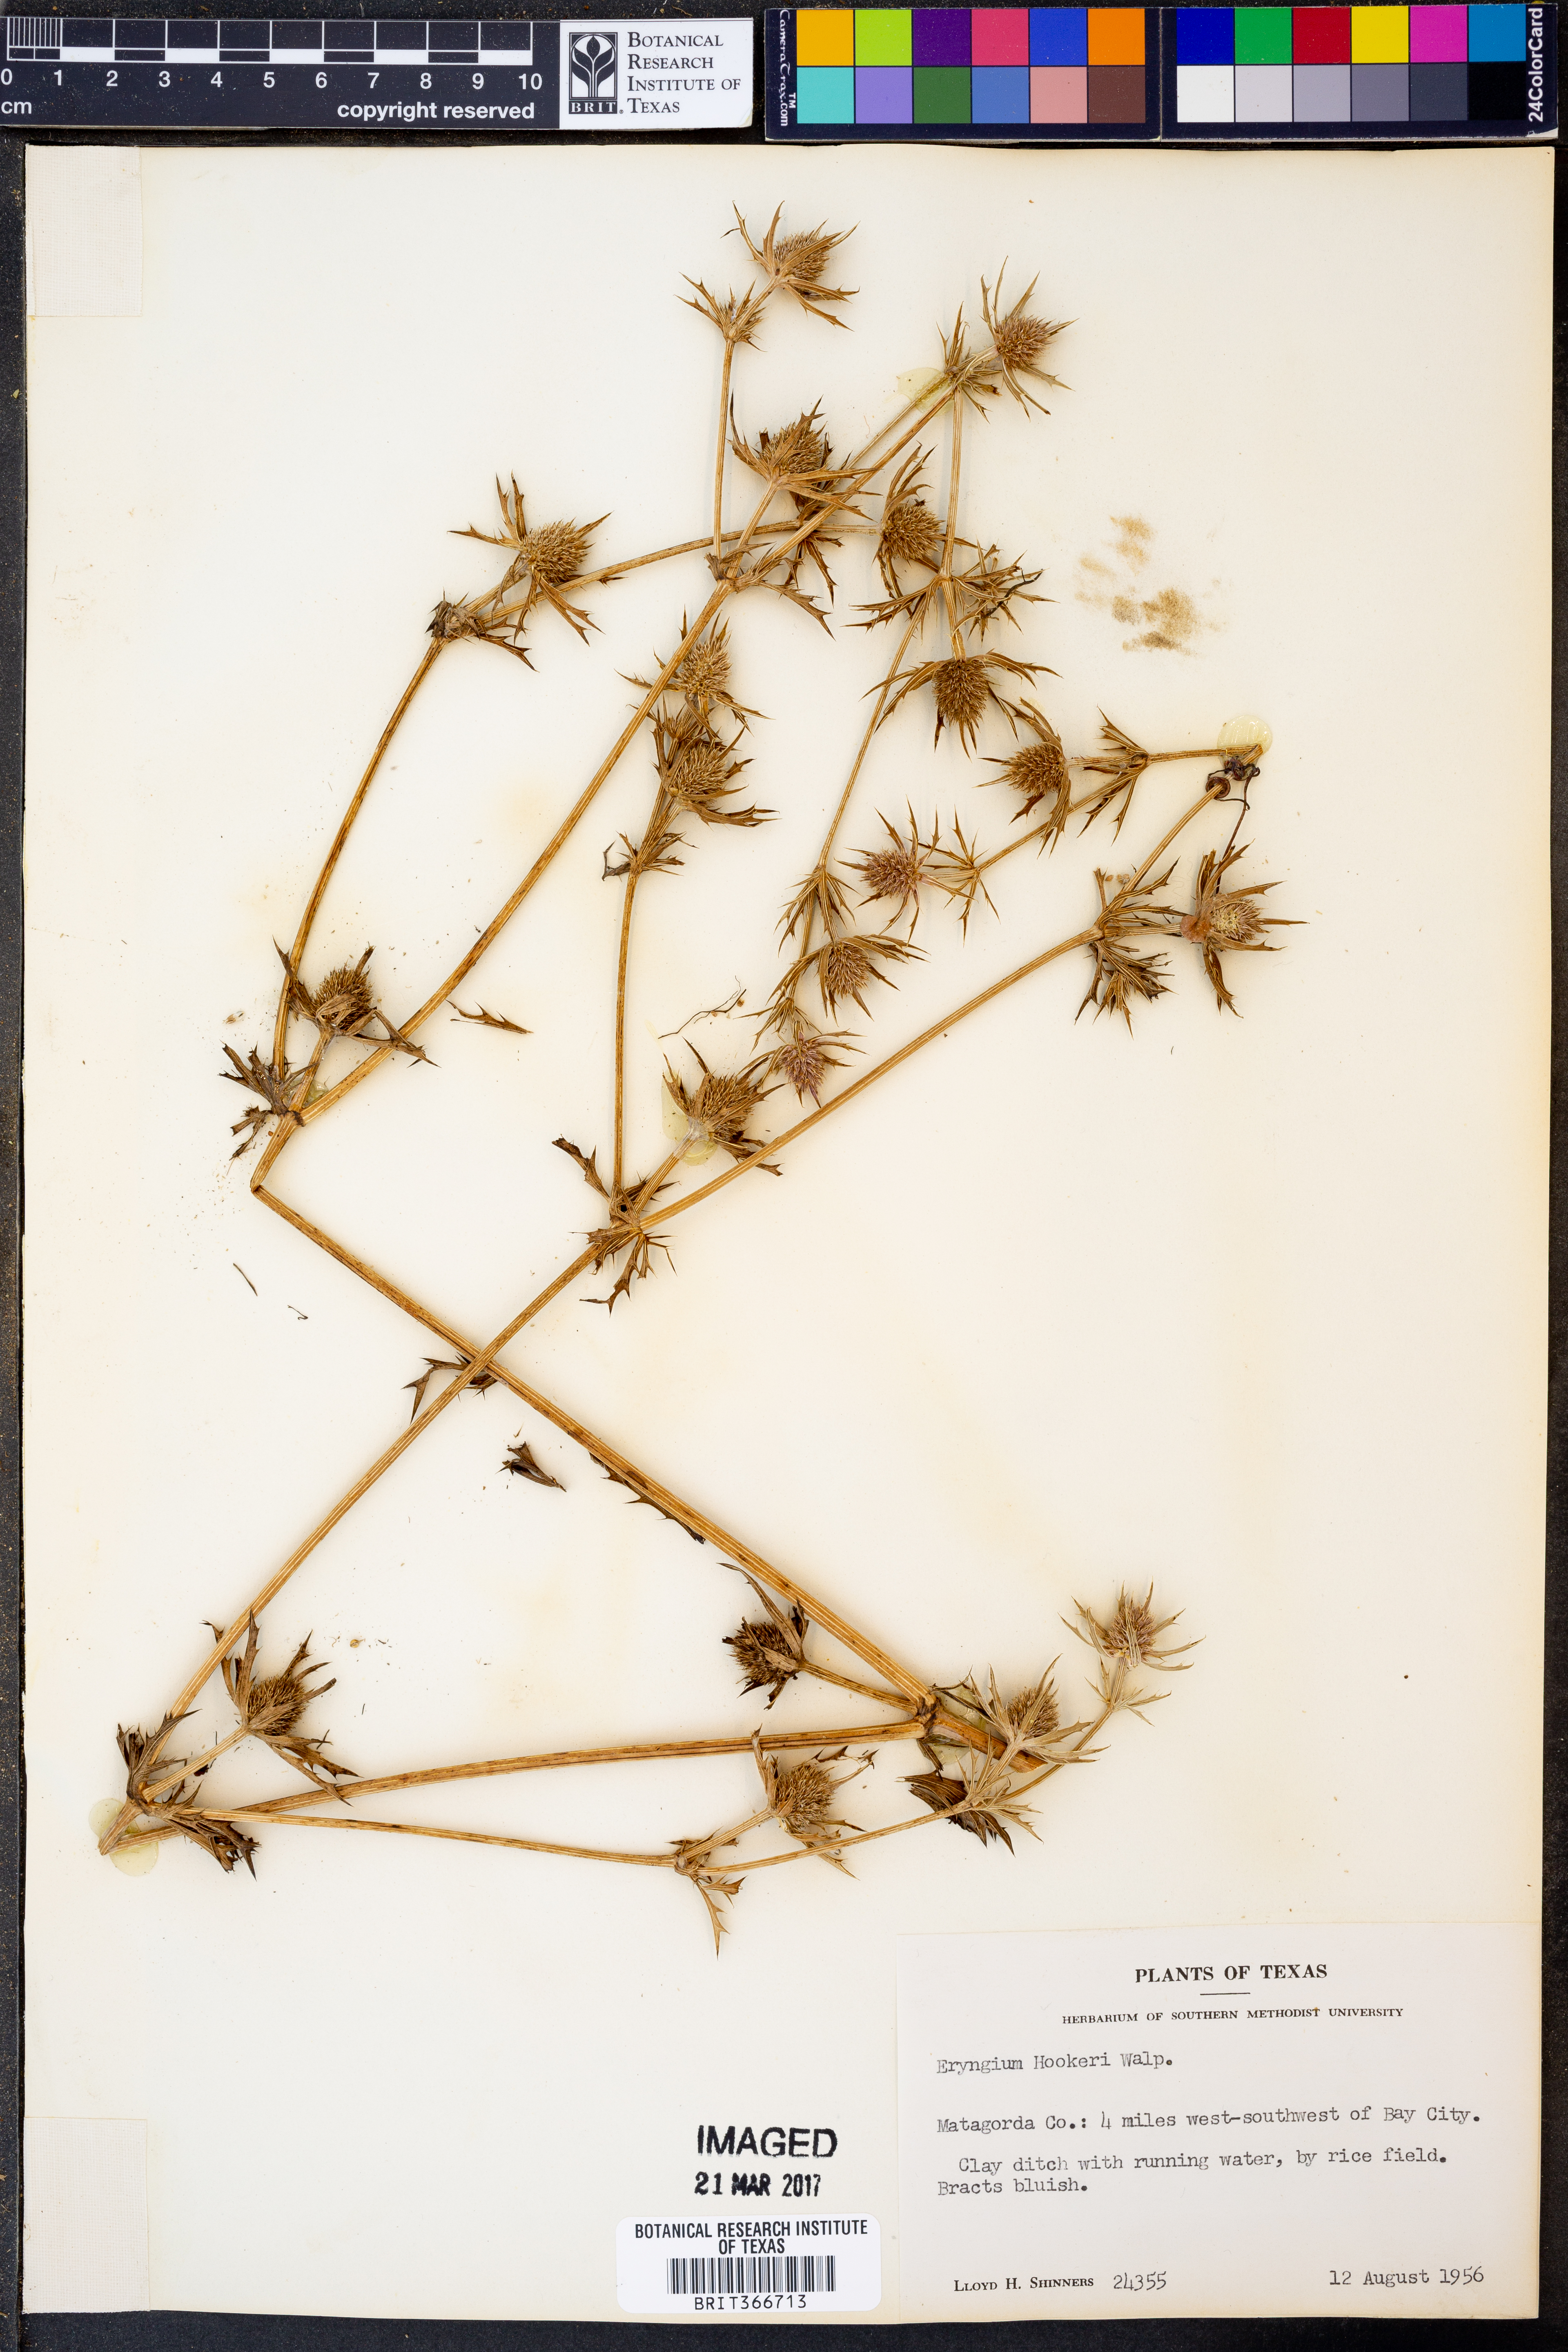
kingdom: Plantae
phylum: Tracheophyta
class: Magnoliopsida
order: Apiales
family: Apiaceae
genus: Eryngium
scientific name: Eryngium hookeri
